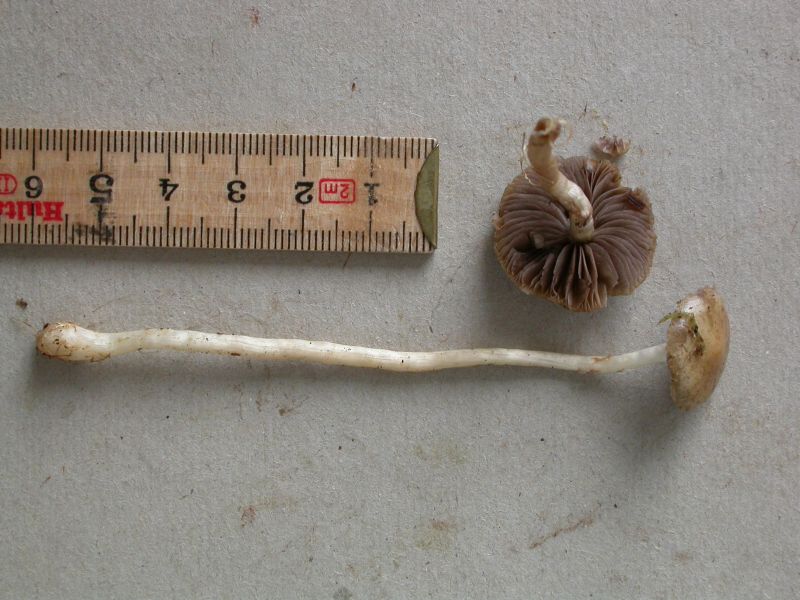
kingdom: Fungi
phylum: Basidiomycota
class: Agaricomycetes
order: Agaricales
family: Strophariaceae
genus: Agrocybe
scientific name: Agrocybe elatella
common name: mose-agerhat
